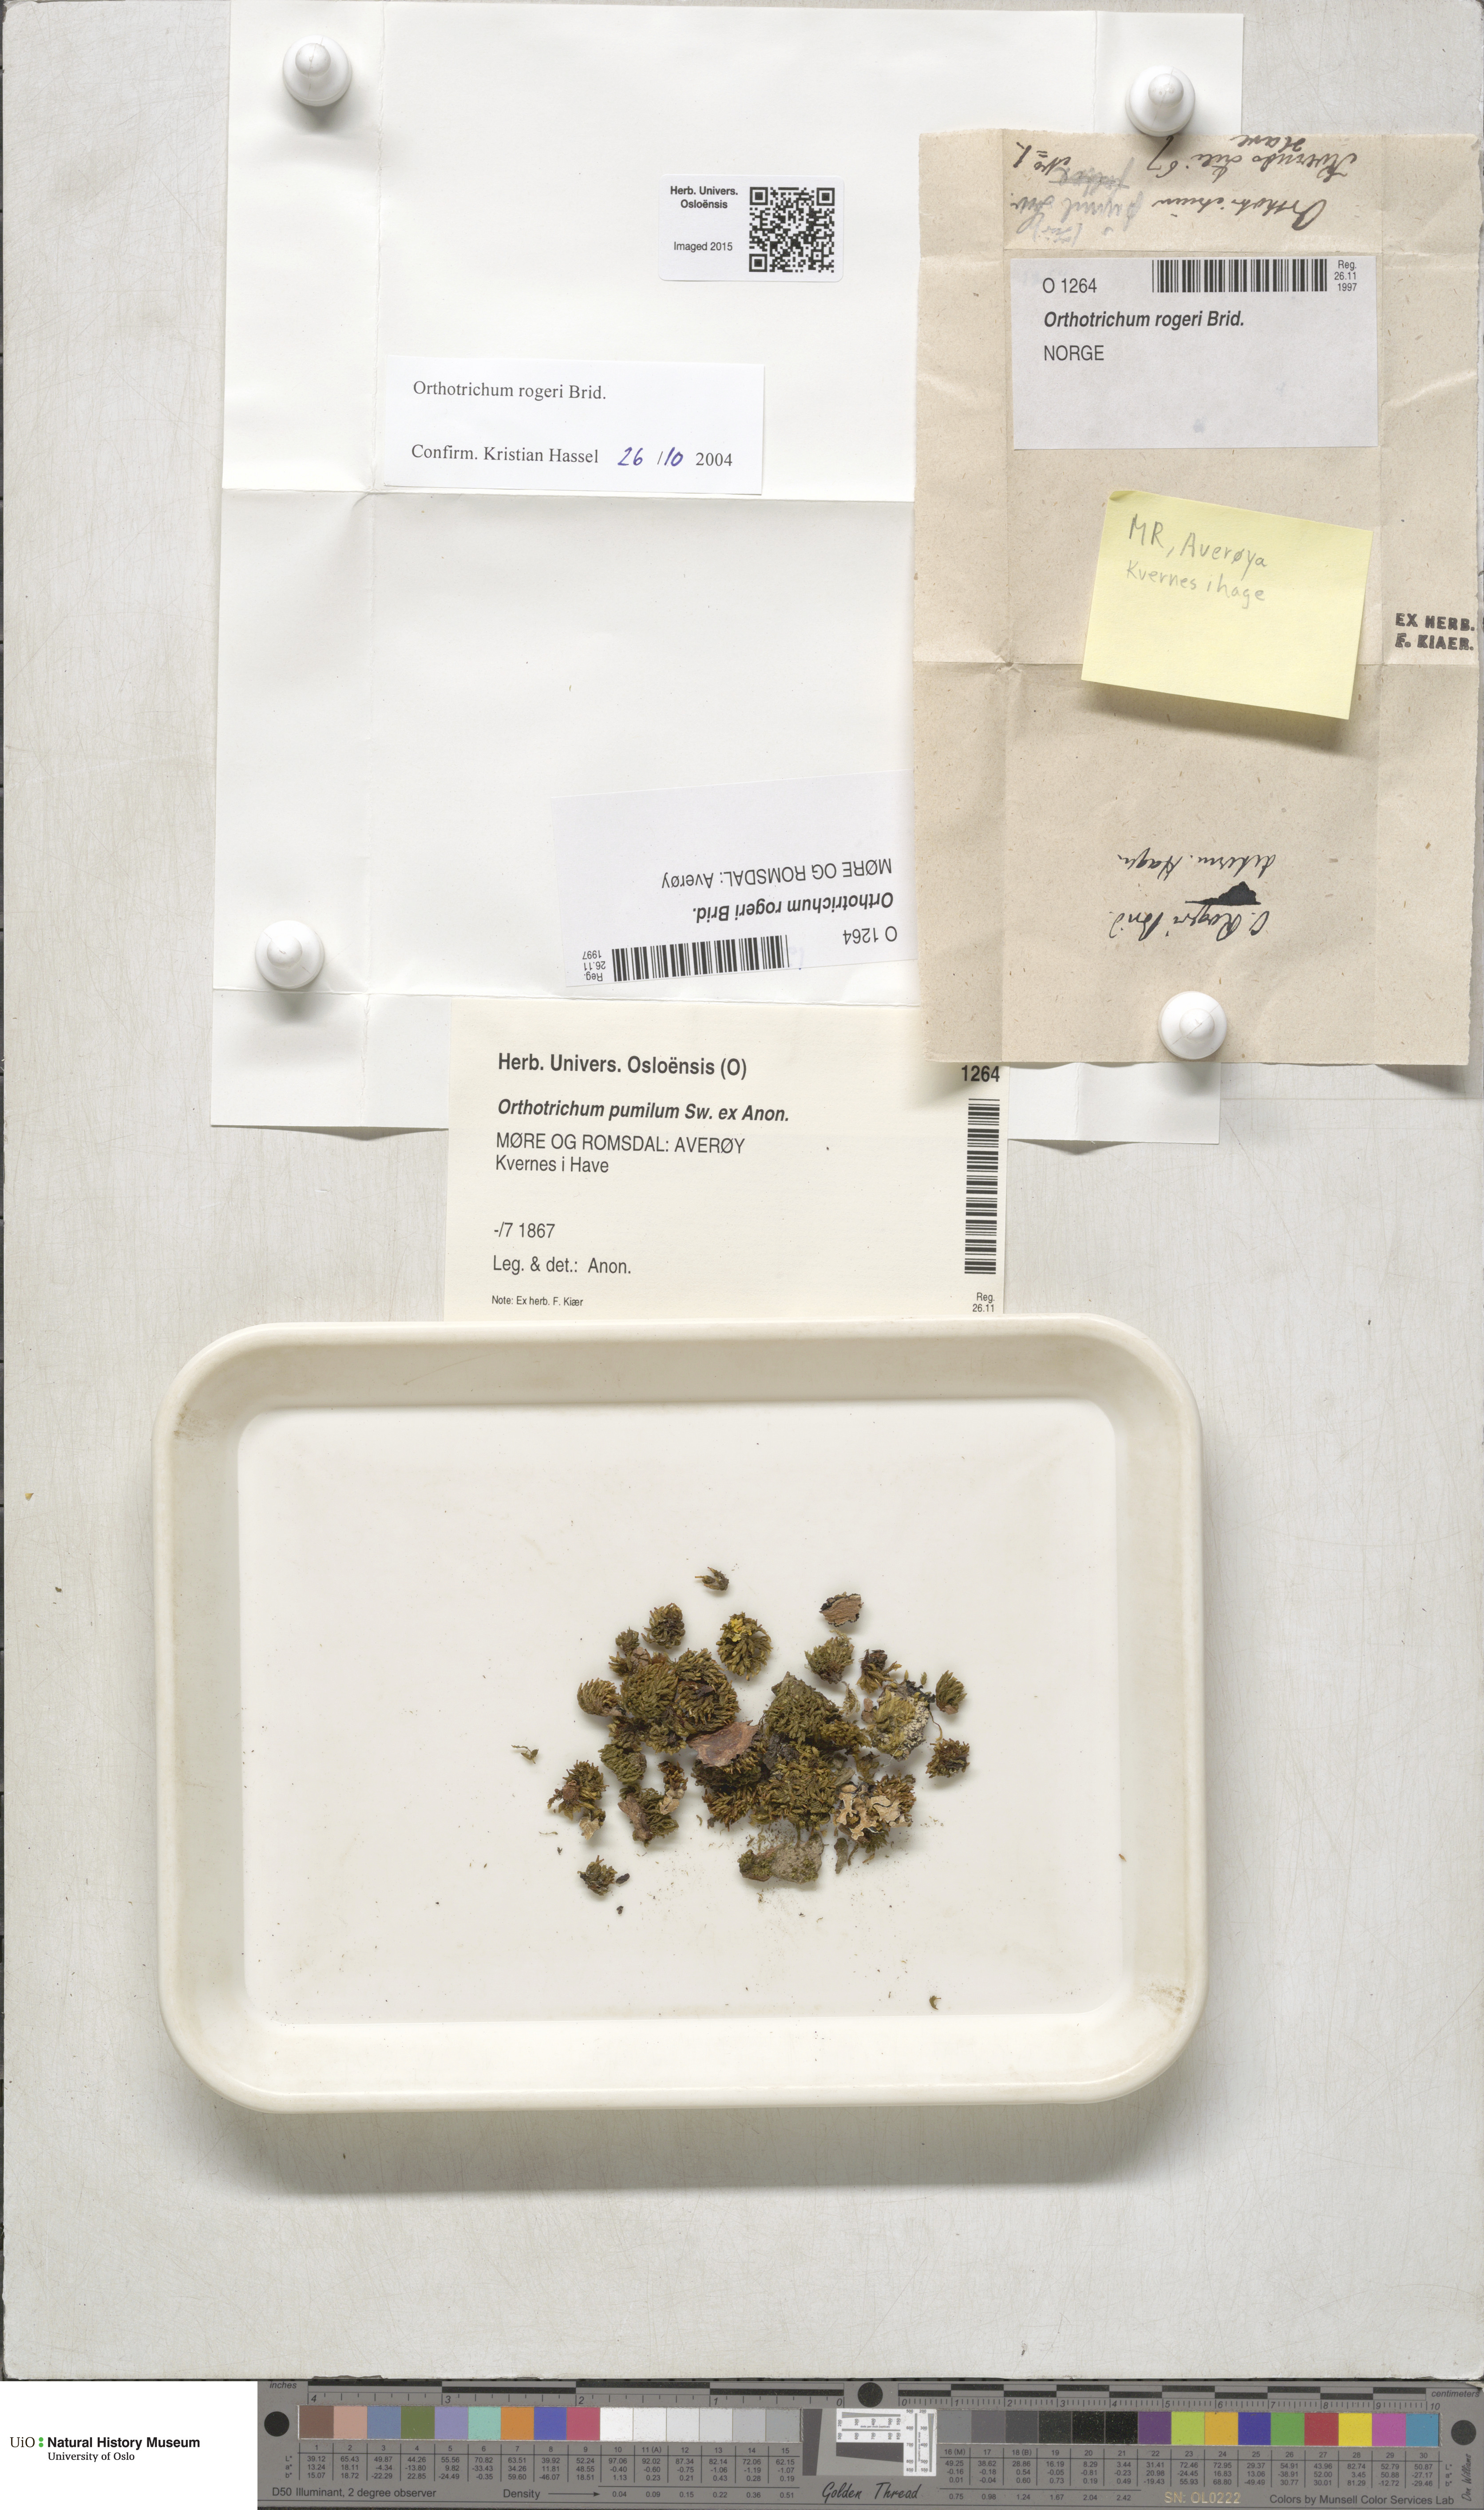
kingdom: Plantae
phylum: Bryophyta
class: Bryopsida
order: Orthotrichales
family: Orthotrichaceae
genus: Orthotrichum
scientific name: Orthotrichum rogeri
